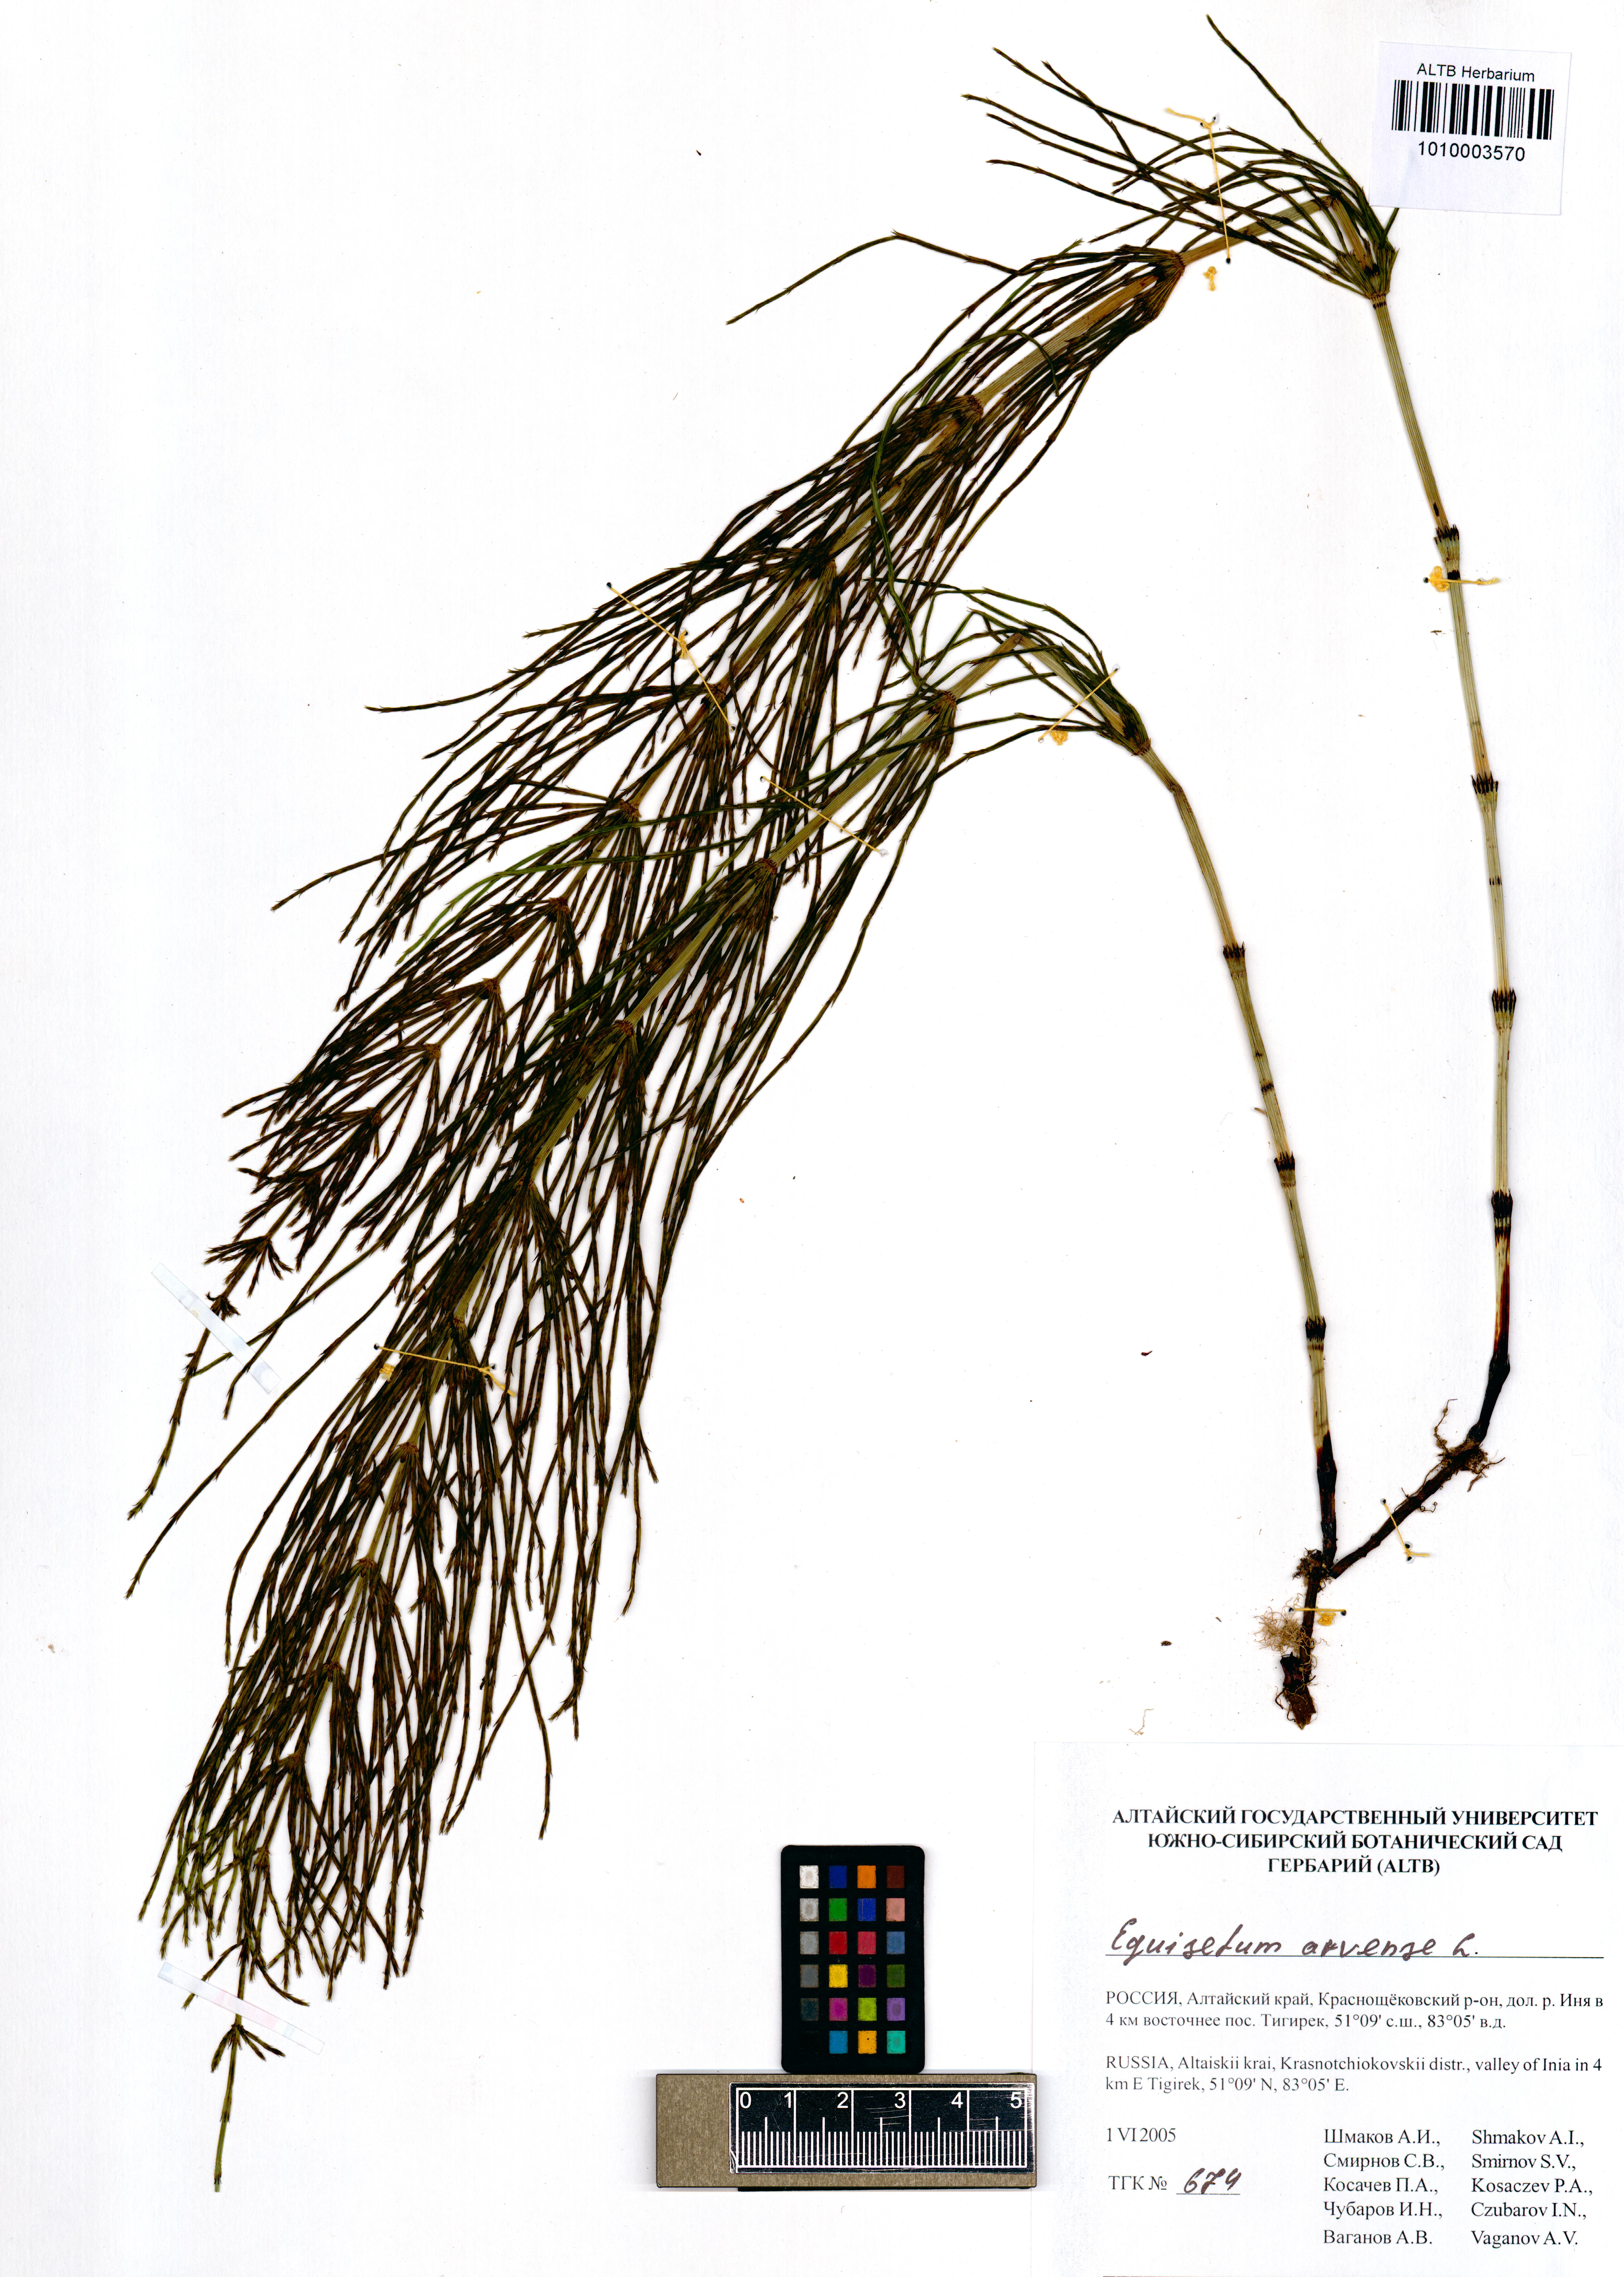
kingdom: Plantae
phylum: Tracheophyta
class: Polypodiopsida
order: Equisetales
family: Equisetaceae
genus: Equisetum
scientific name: Equisetum arvense
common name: Field horsetail
